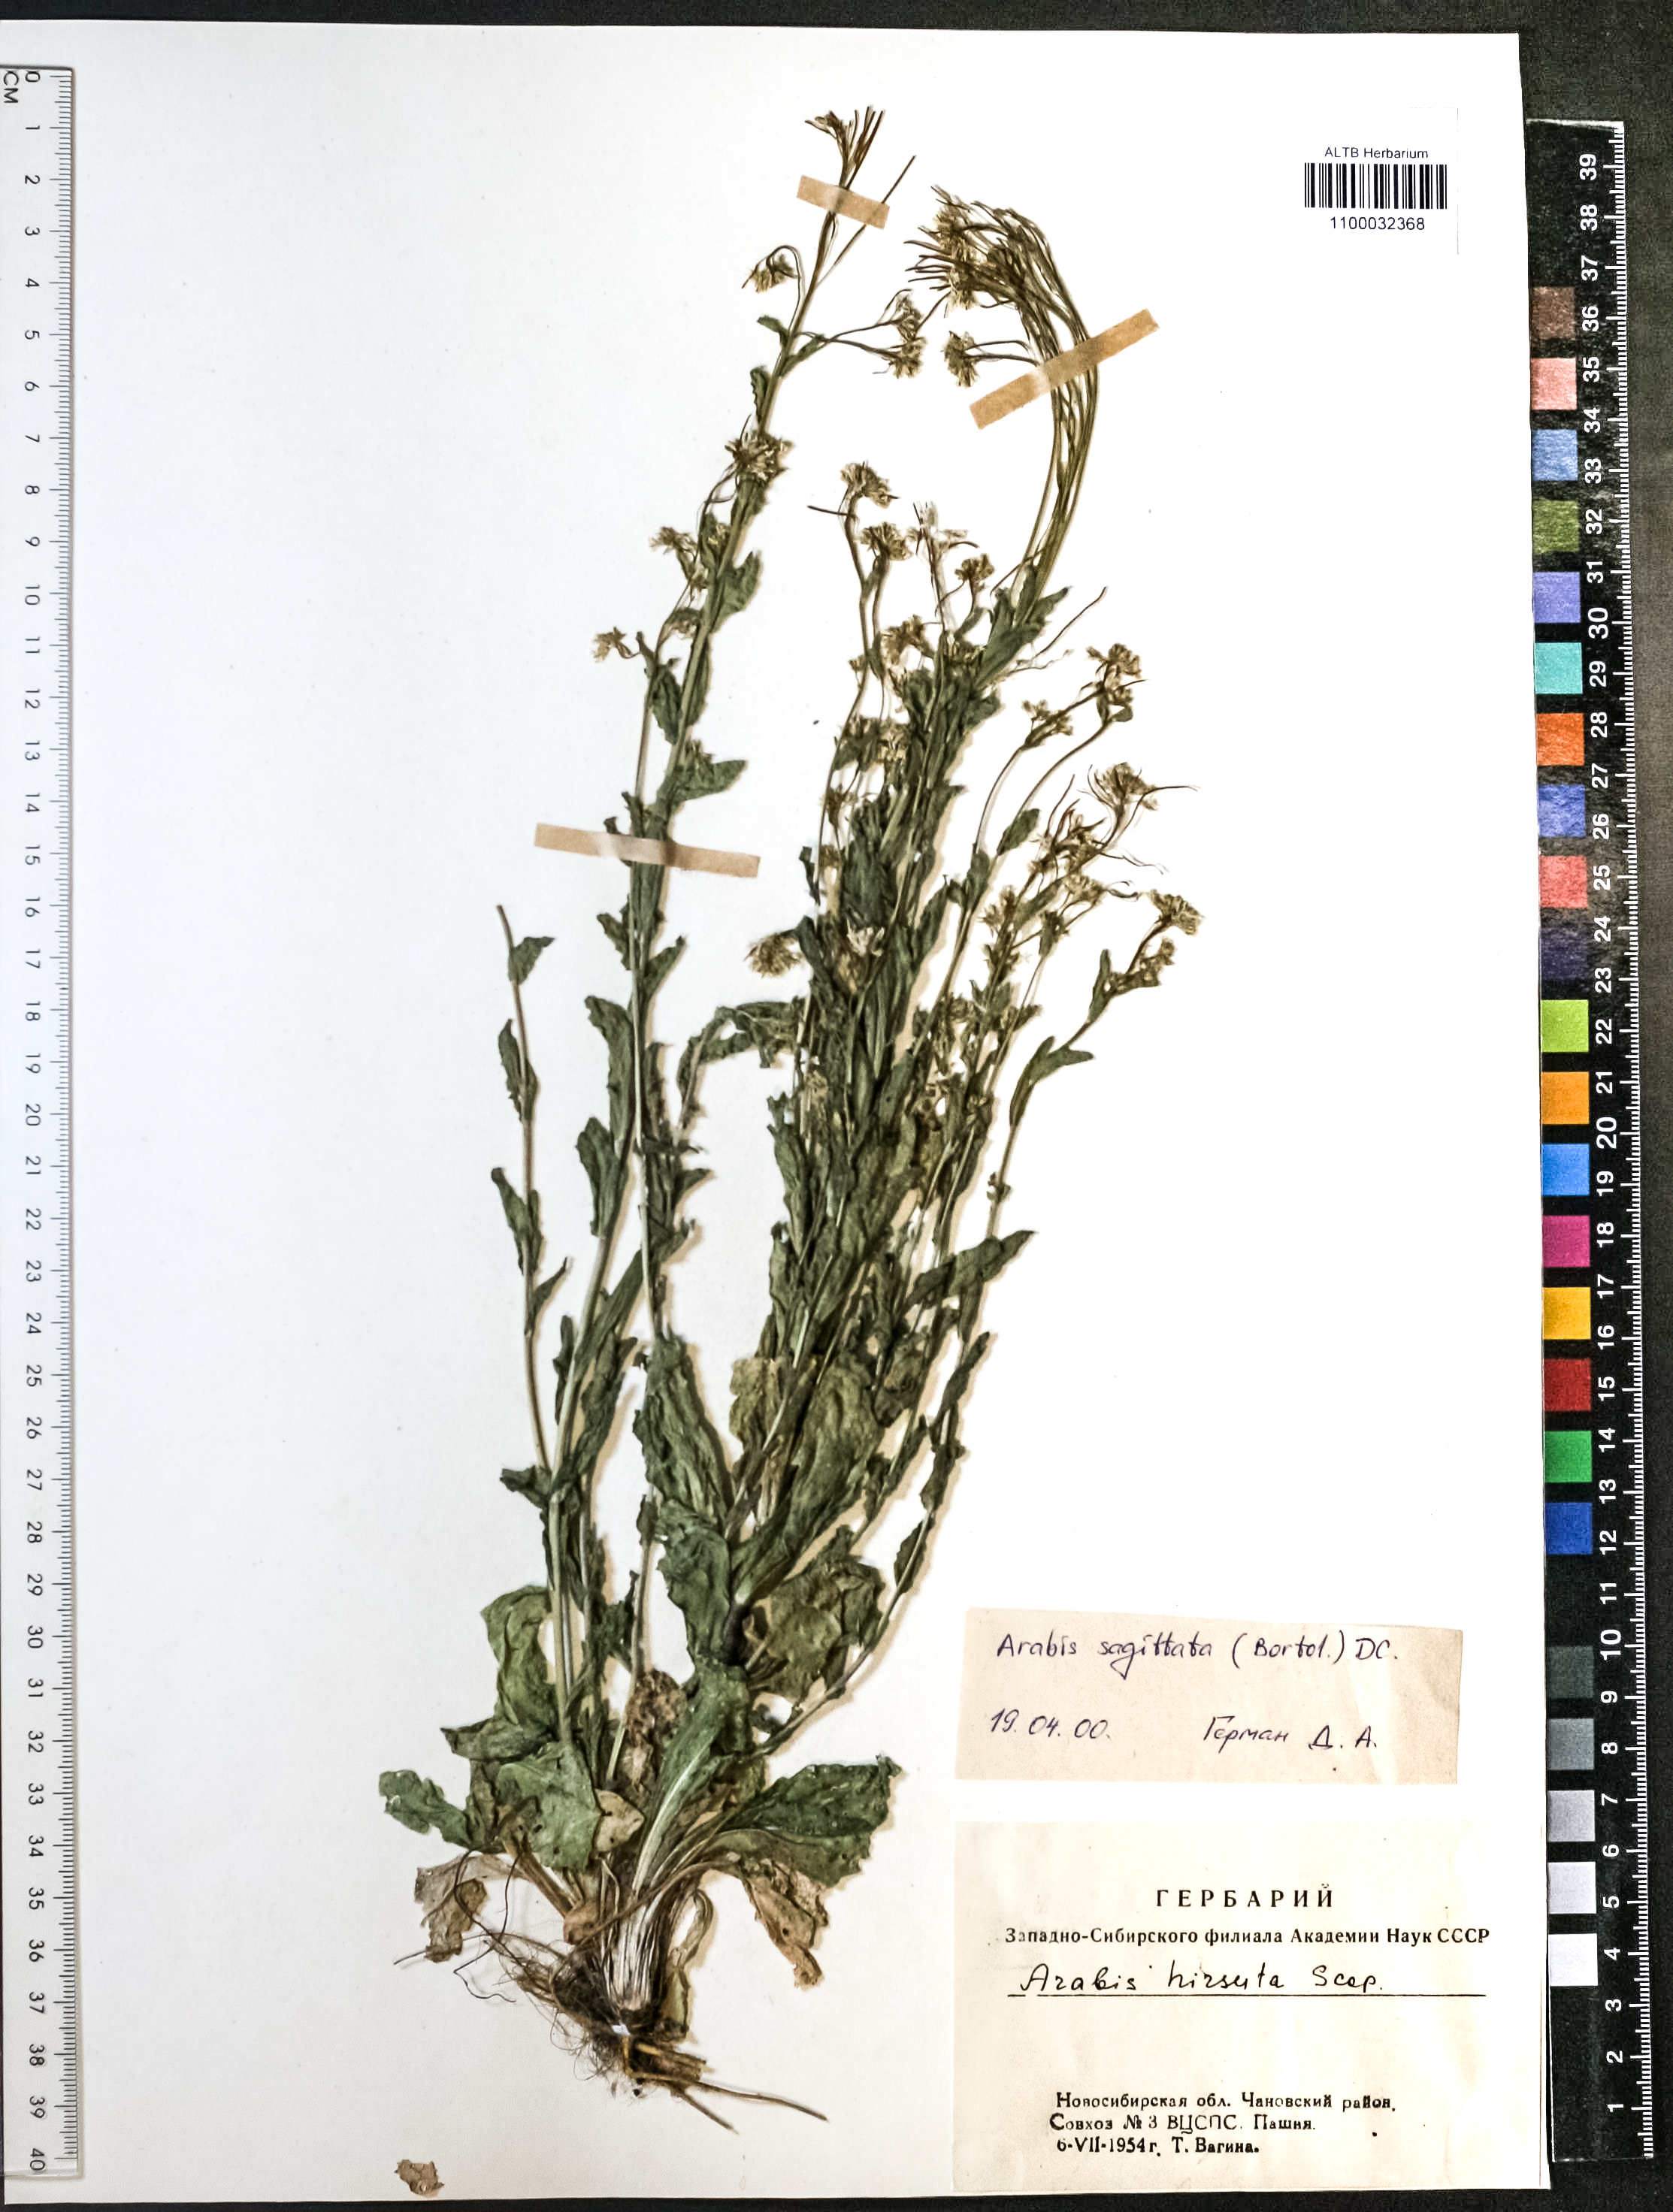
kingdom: Plantae
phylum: Tracheophyta
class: Magnoliopsida
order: Brassicales
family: Brassicaceae
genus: Arabis
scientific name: Arabis sagittata
